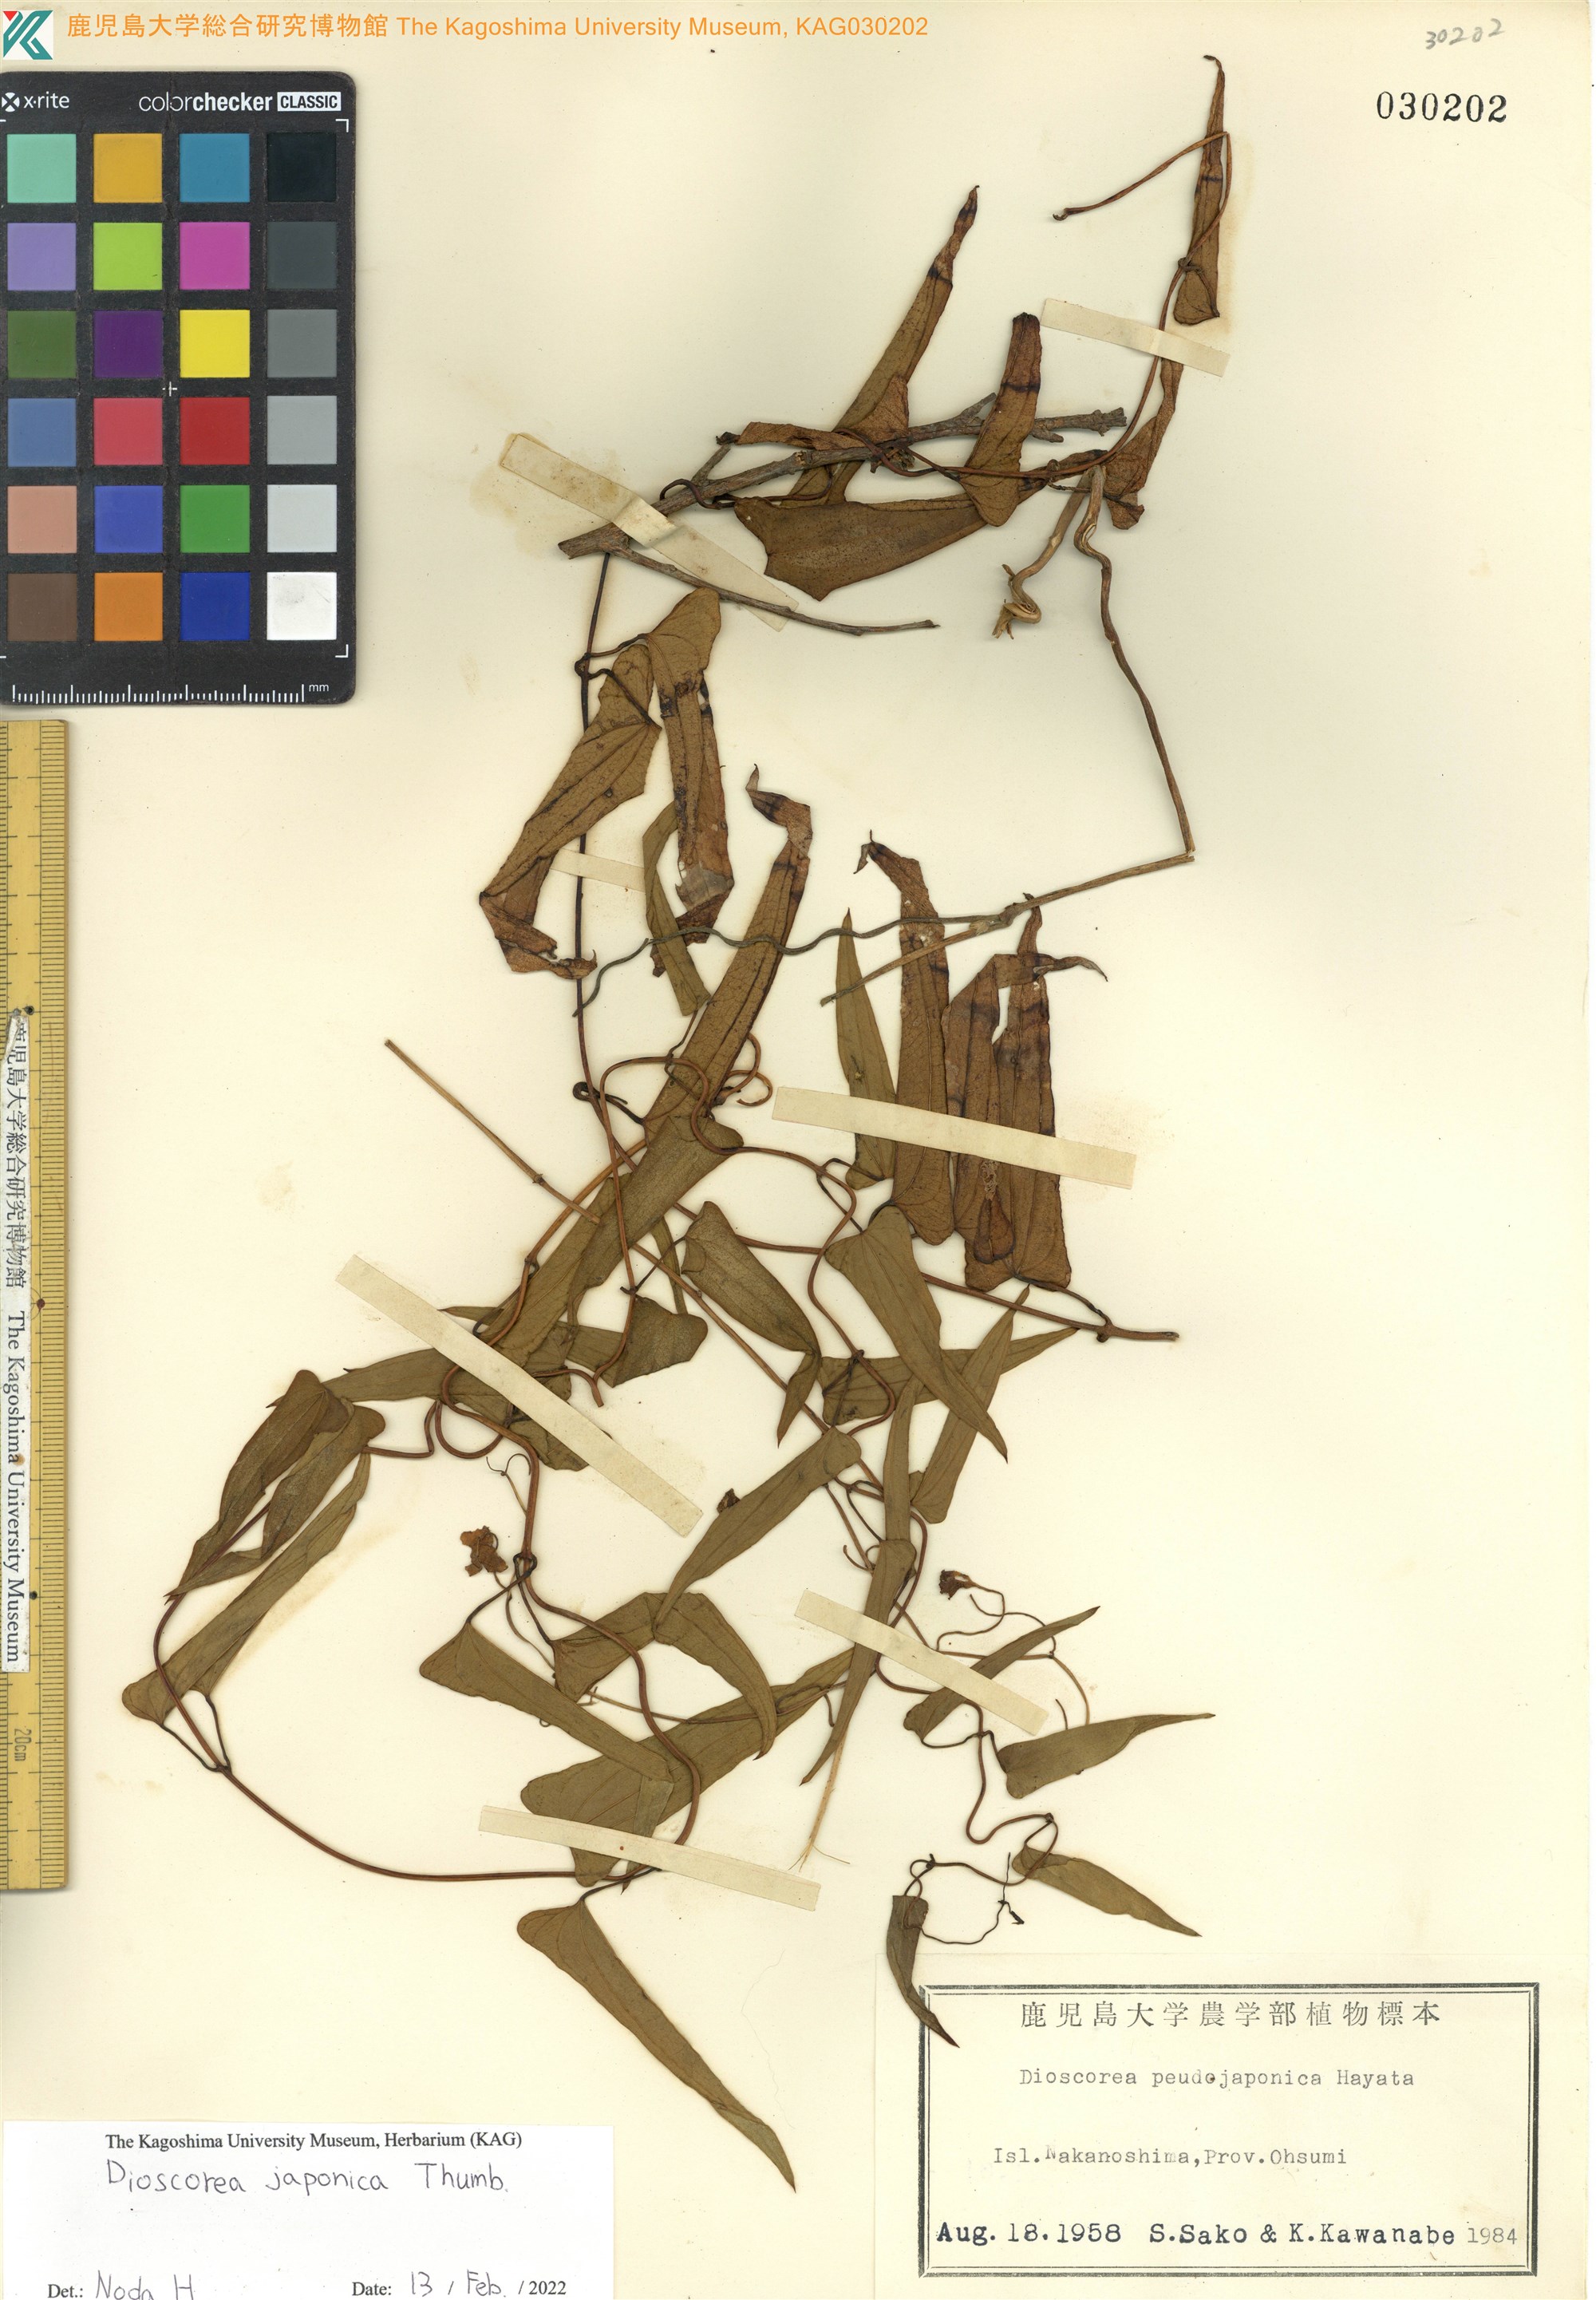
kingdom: Plantae
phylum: Tracheophyta
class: Liliopsida
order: Dioscoreales
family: Dioscoreaceae
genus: Dioscorea
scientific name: Dioscorea japonica
